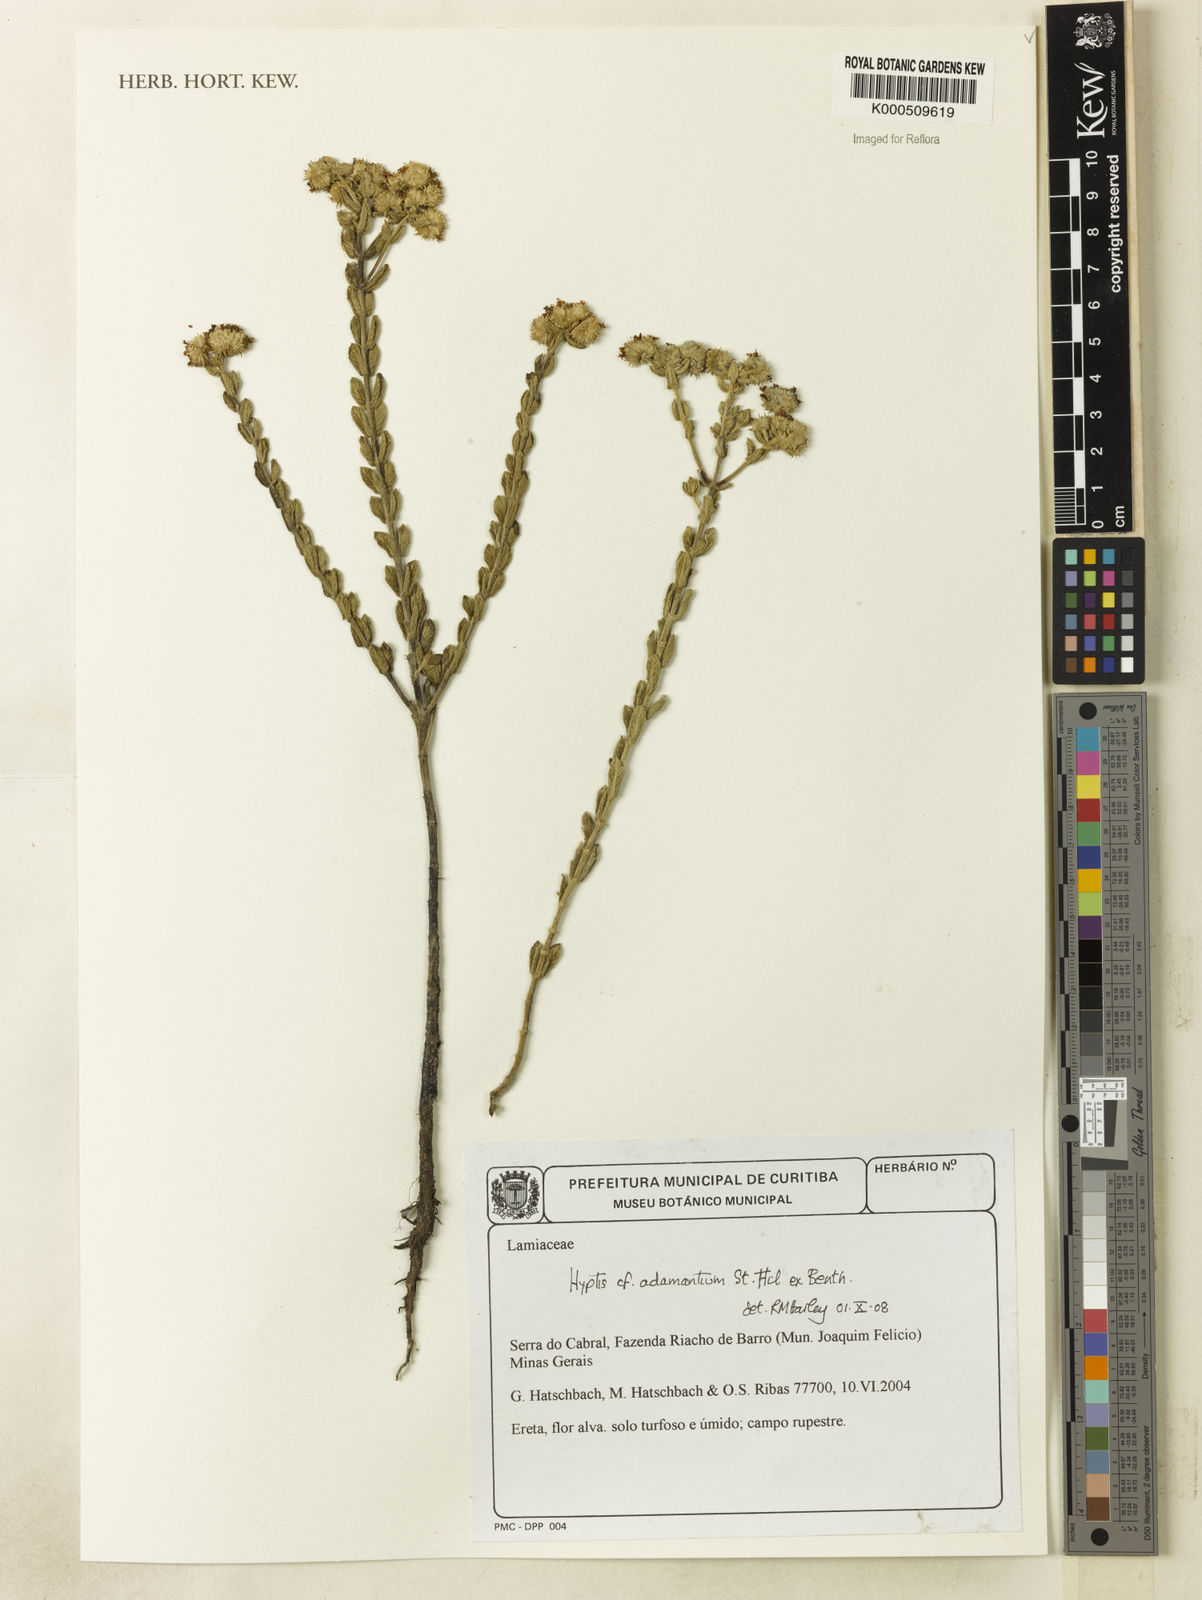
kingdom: Plantae
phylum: Tracheophyta
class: Magnoliopsida
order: Lamiales
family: Lamiaceae
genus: Hyptis
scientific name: Hyptis
